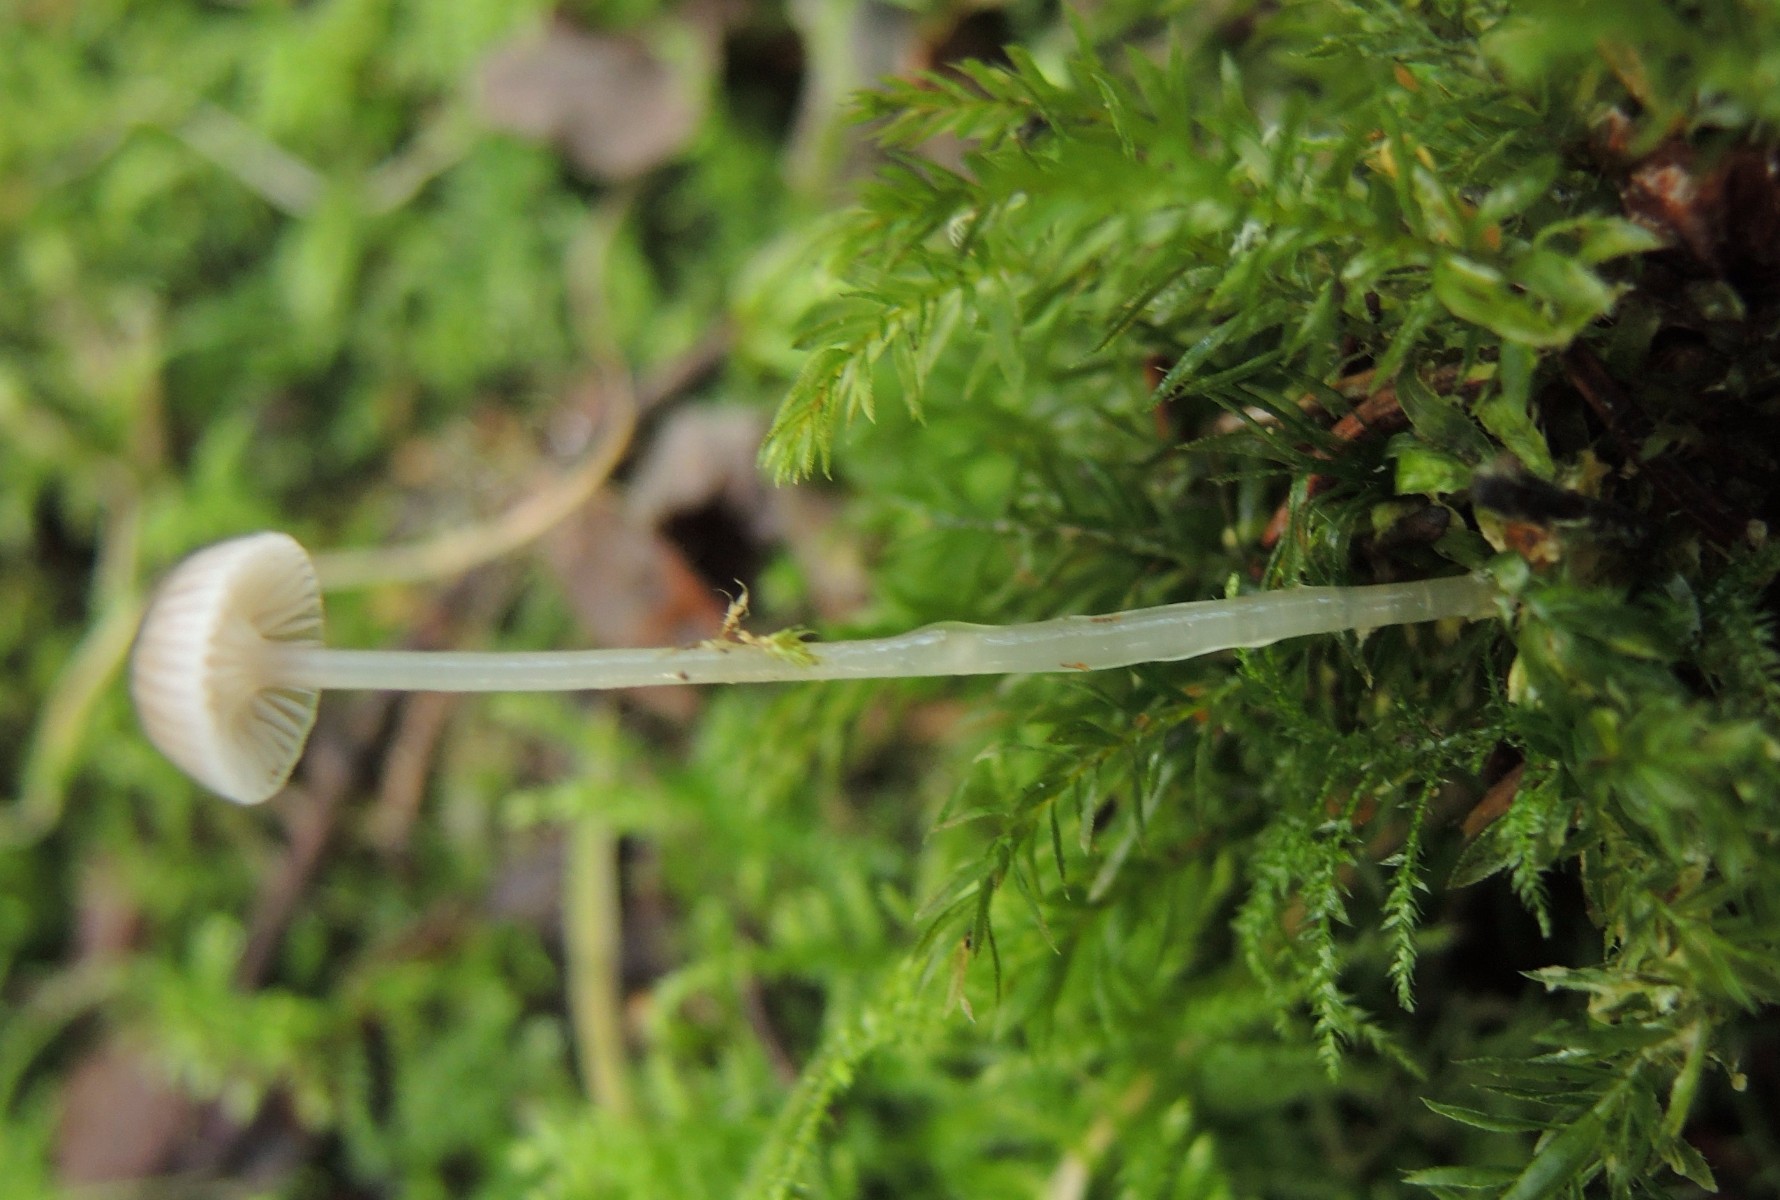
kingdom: Fungi
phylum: Basidiomycota
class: Agaricomycetes
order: Agaricales
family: Mycenaceae
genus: Roridomyces
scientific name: Roridomyces roridus
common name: slimfod
